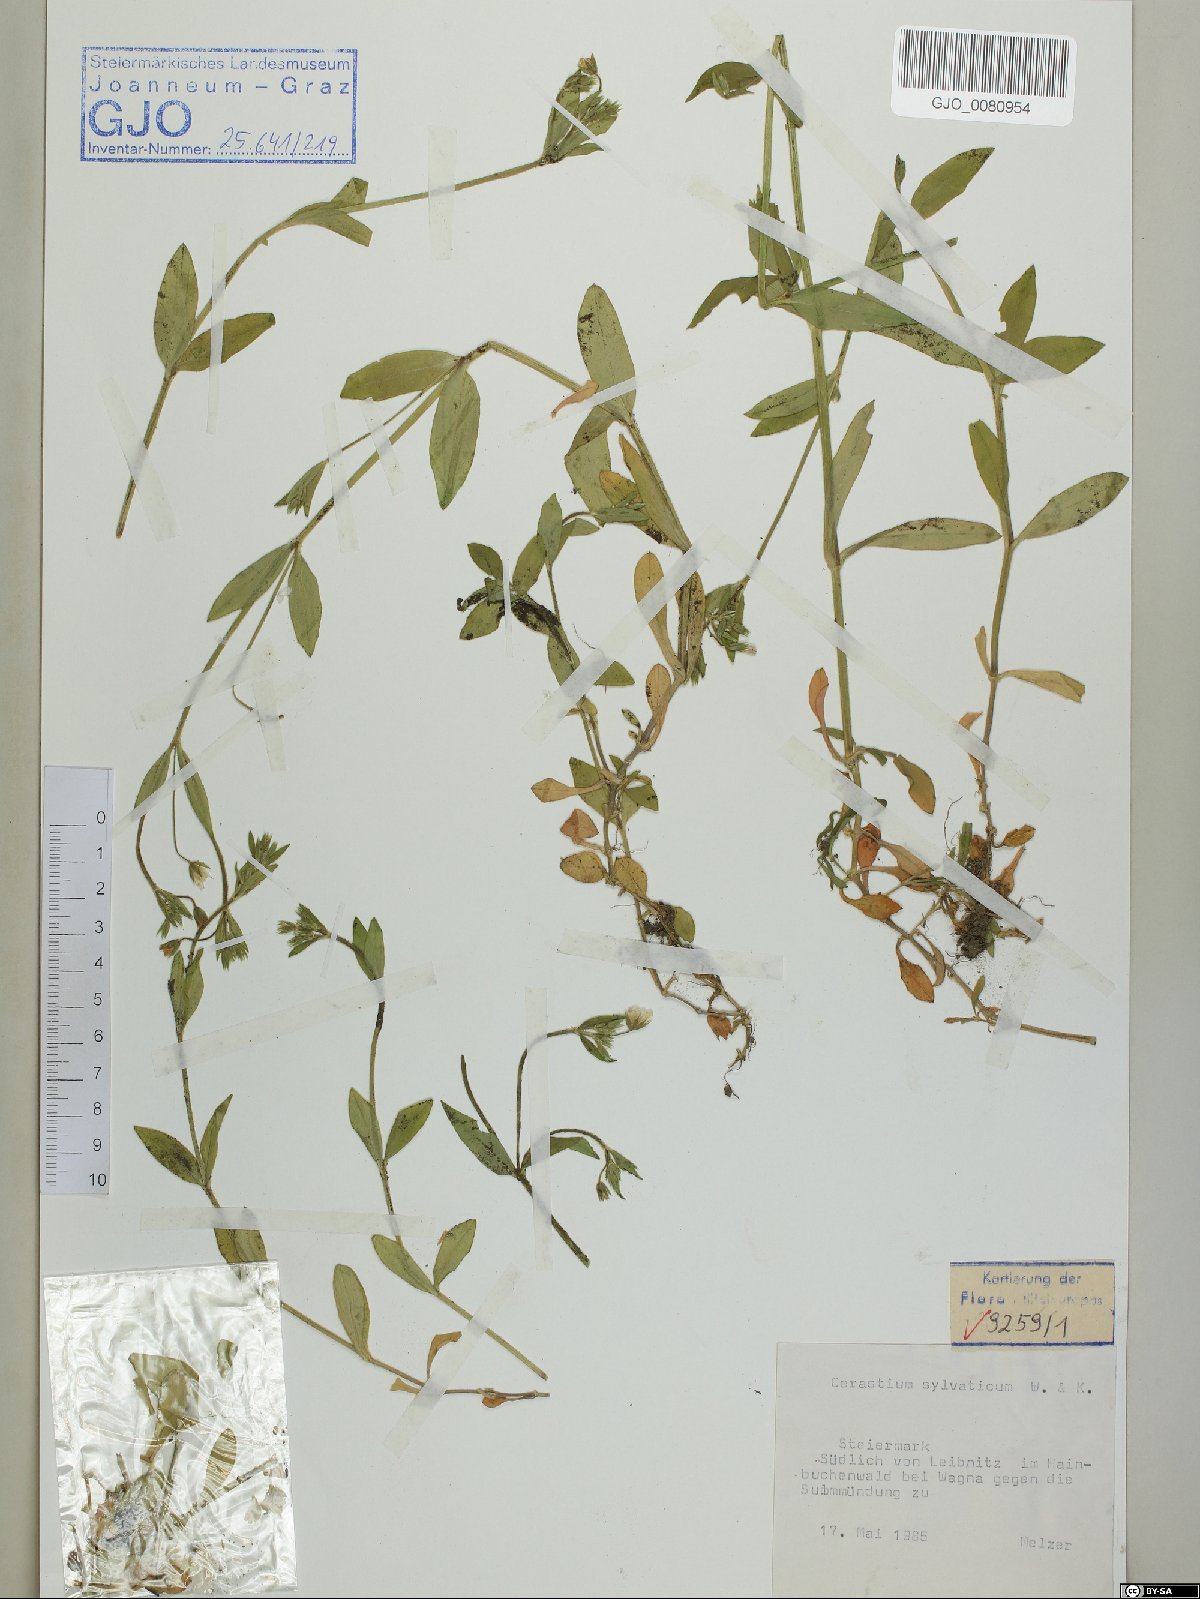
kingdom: Plantae
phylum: Tracheophyta
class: Magnoliopsida
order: Caryophyllales
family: Caryophyllaceae
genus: Cerastium
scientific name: Cerastium sylvaticum
